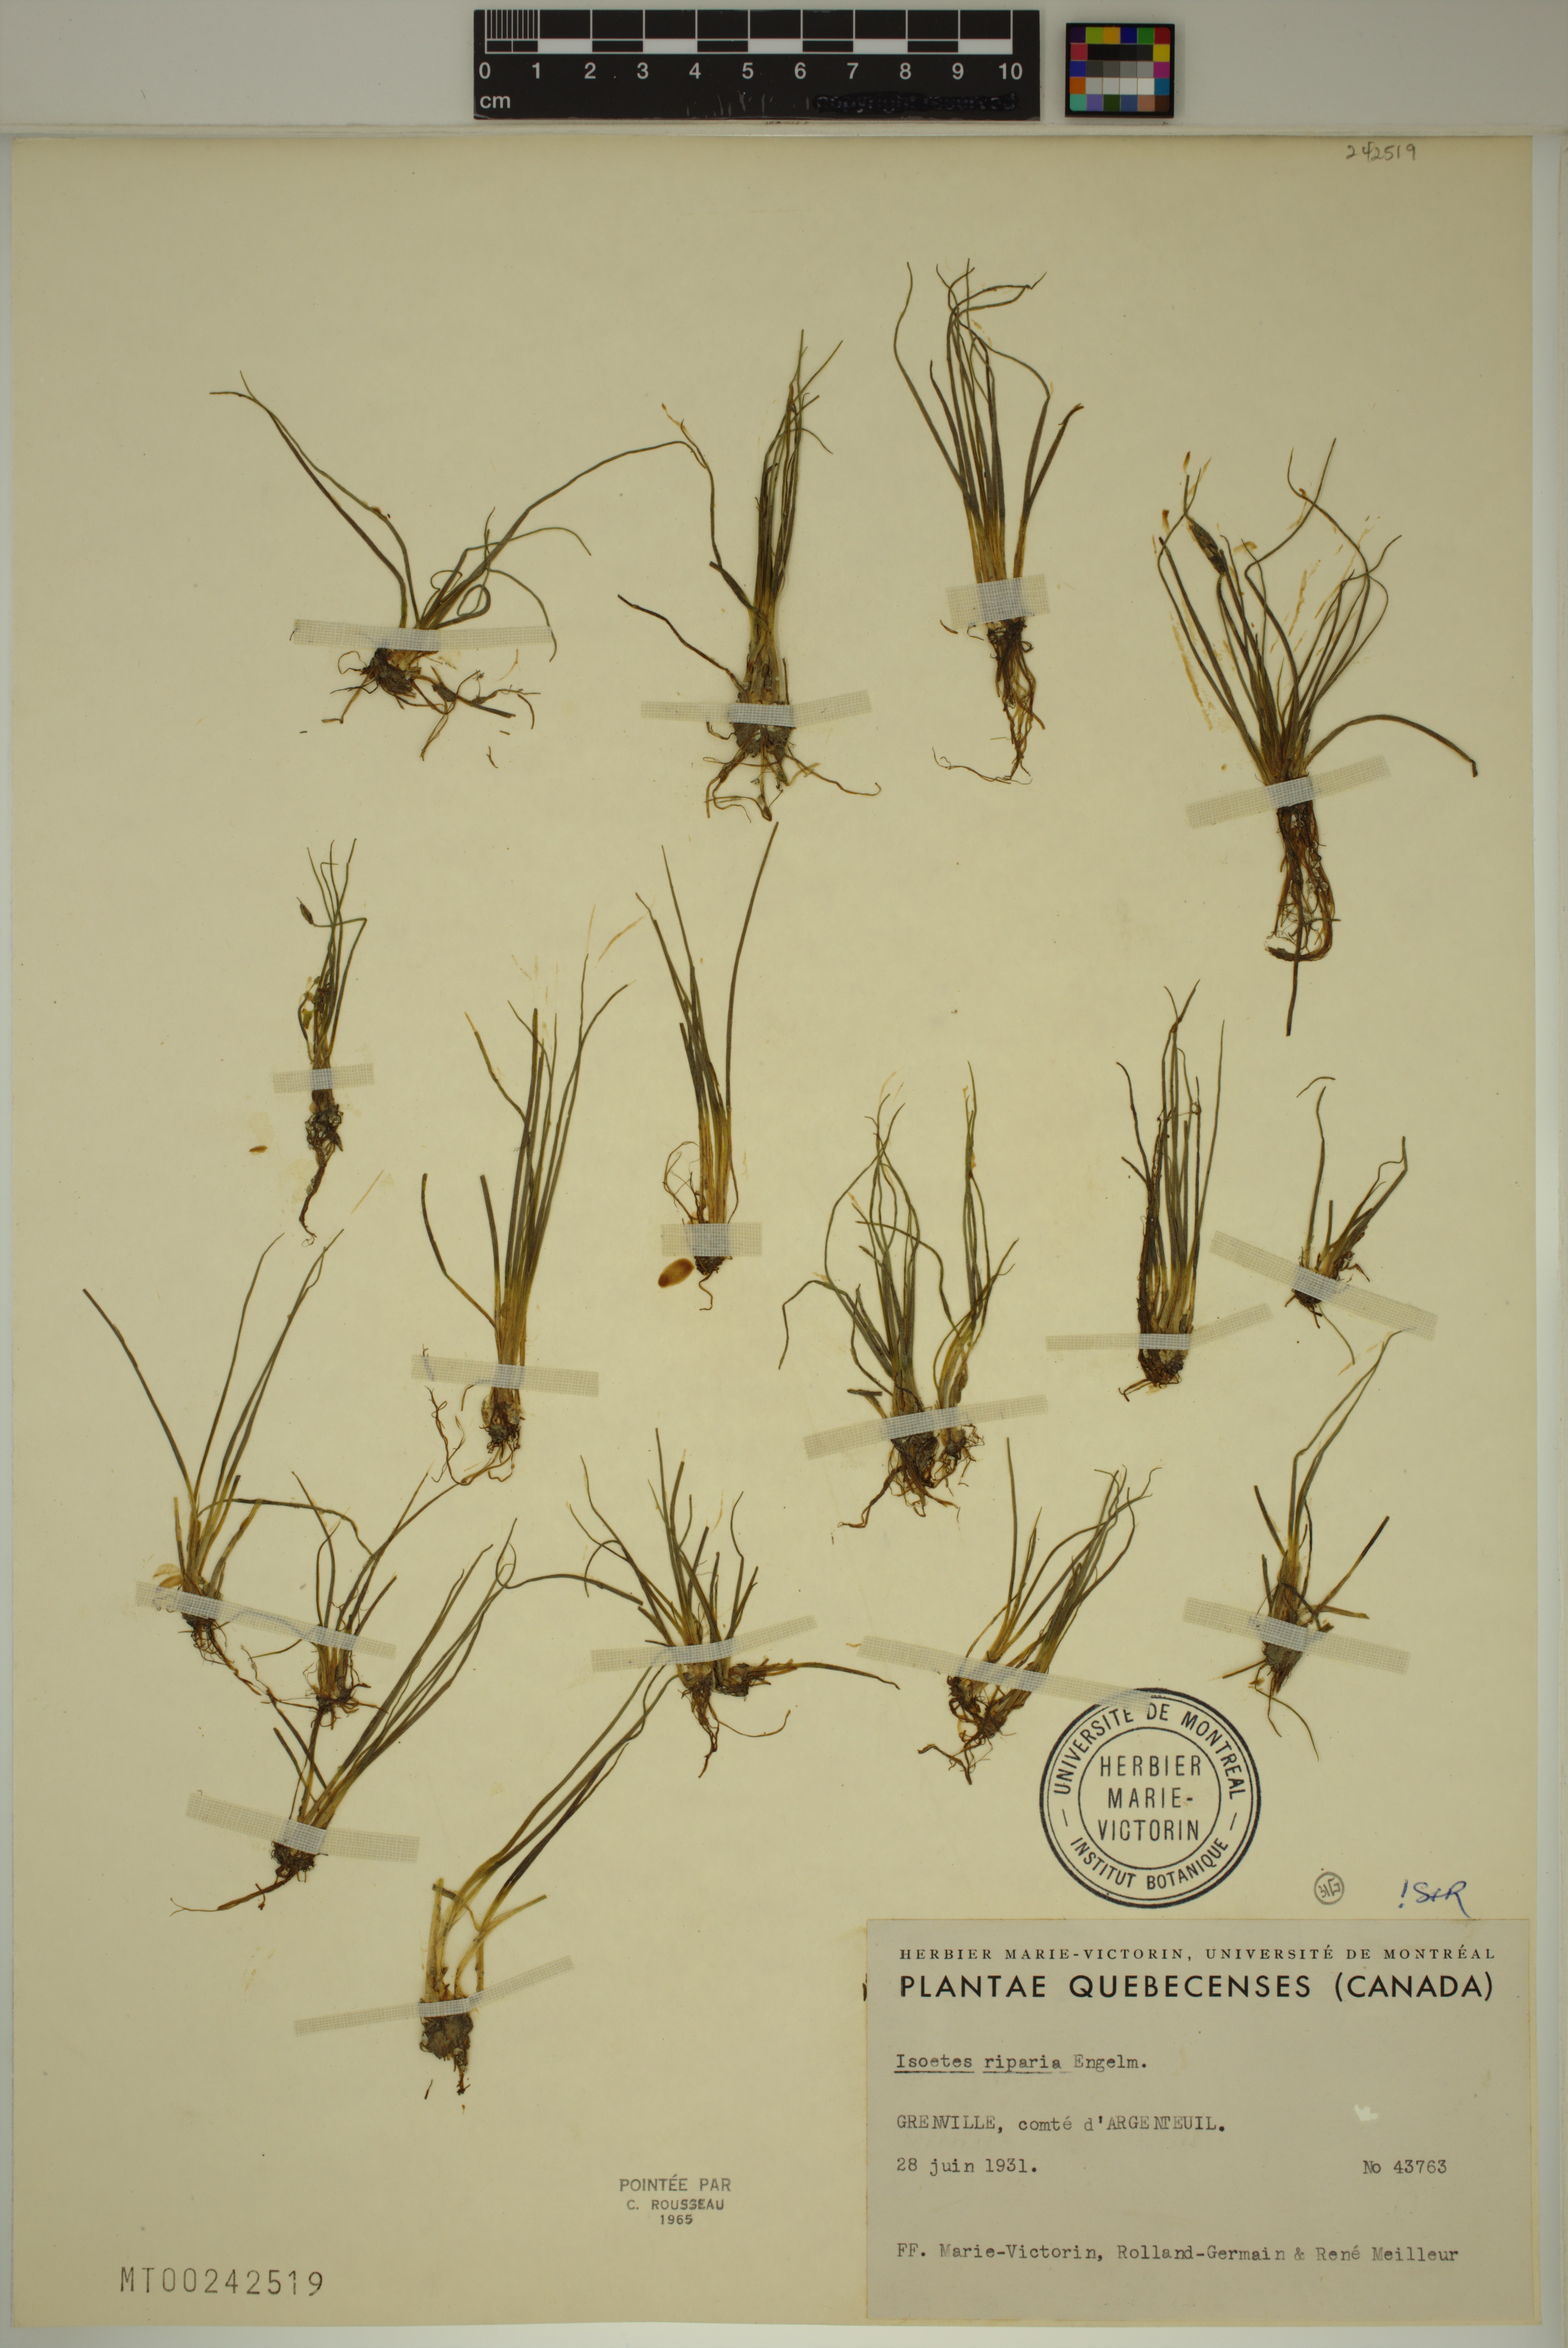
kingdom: Plantae
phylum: Tracheophyta
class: Lycopodiopsida
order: Isoetales
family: Isoetaceae
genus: Isoetes
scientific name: Isoetes septentrionalis
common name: Northern quillwort
